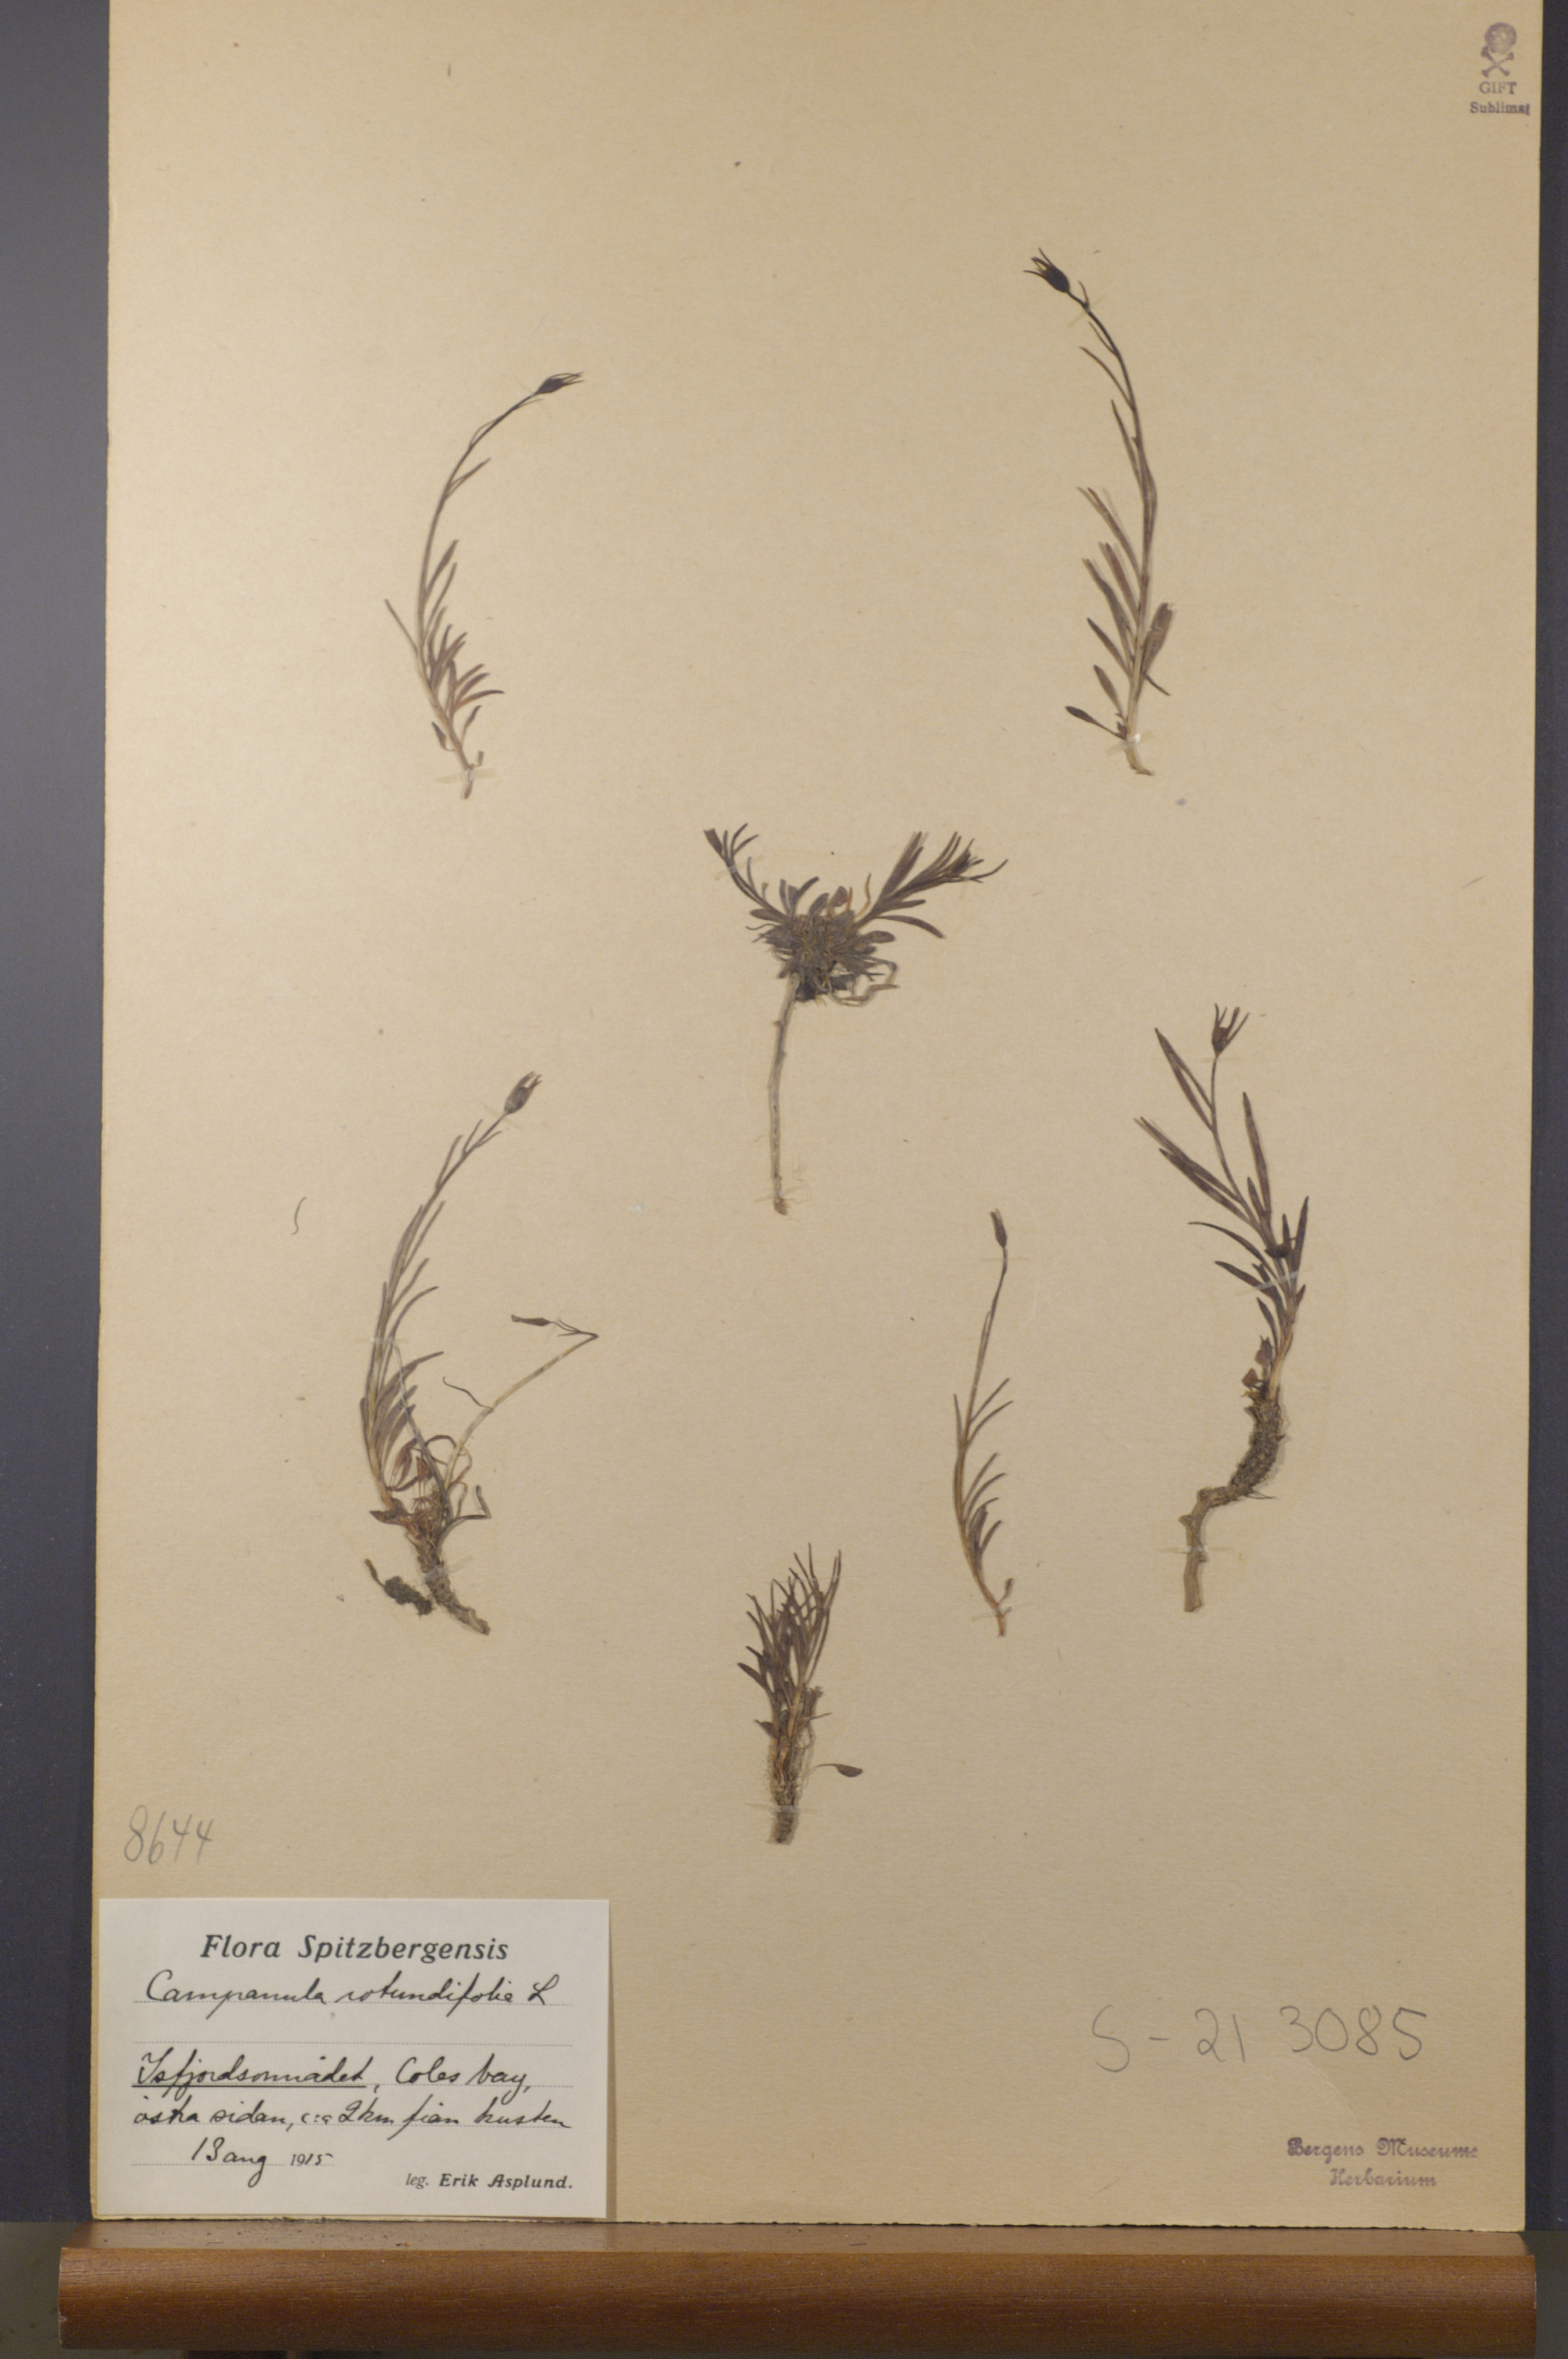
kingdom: Plantae
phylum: Tracheophyta
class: Magnoliopsida
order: Asterales
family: Campanulaceae
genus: Campanula
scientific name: Campanula rotundifolia
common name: Harebell
